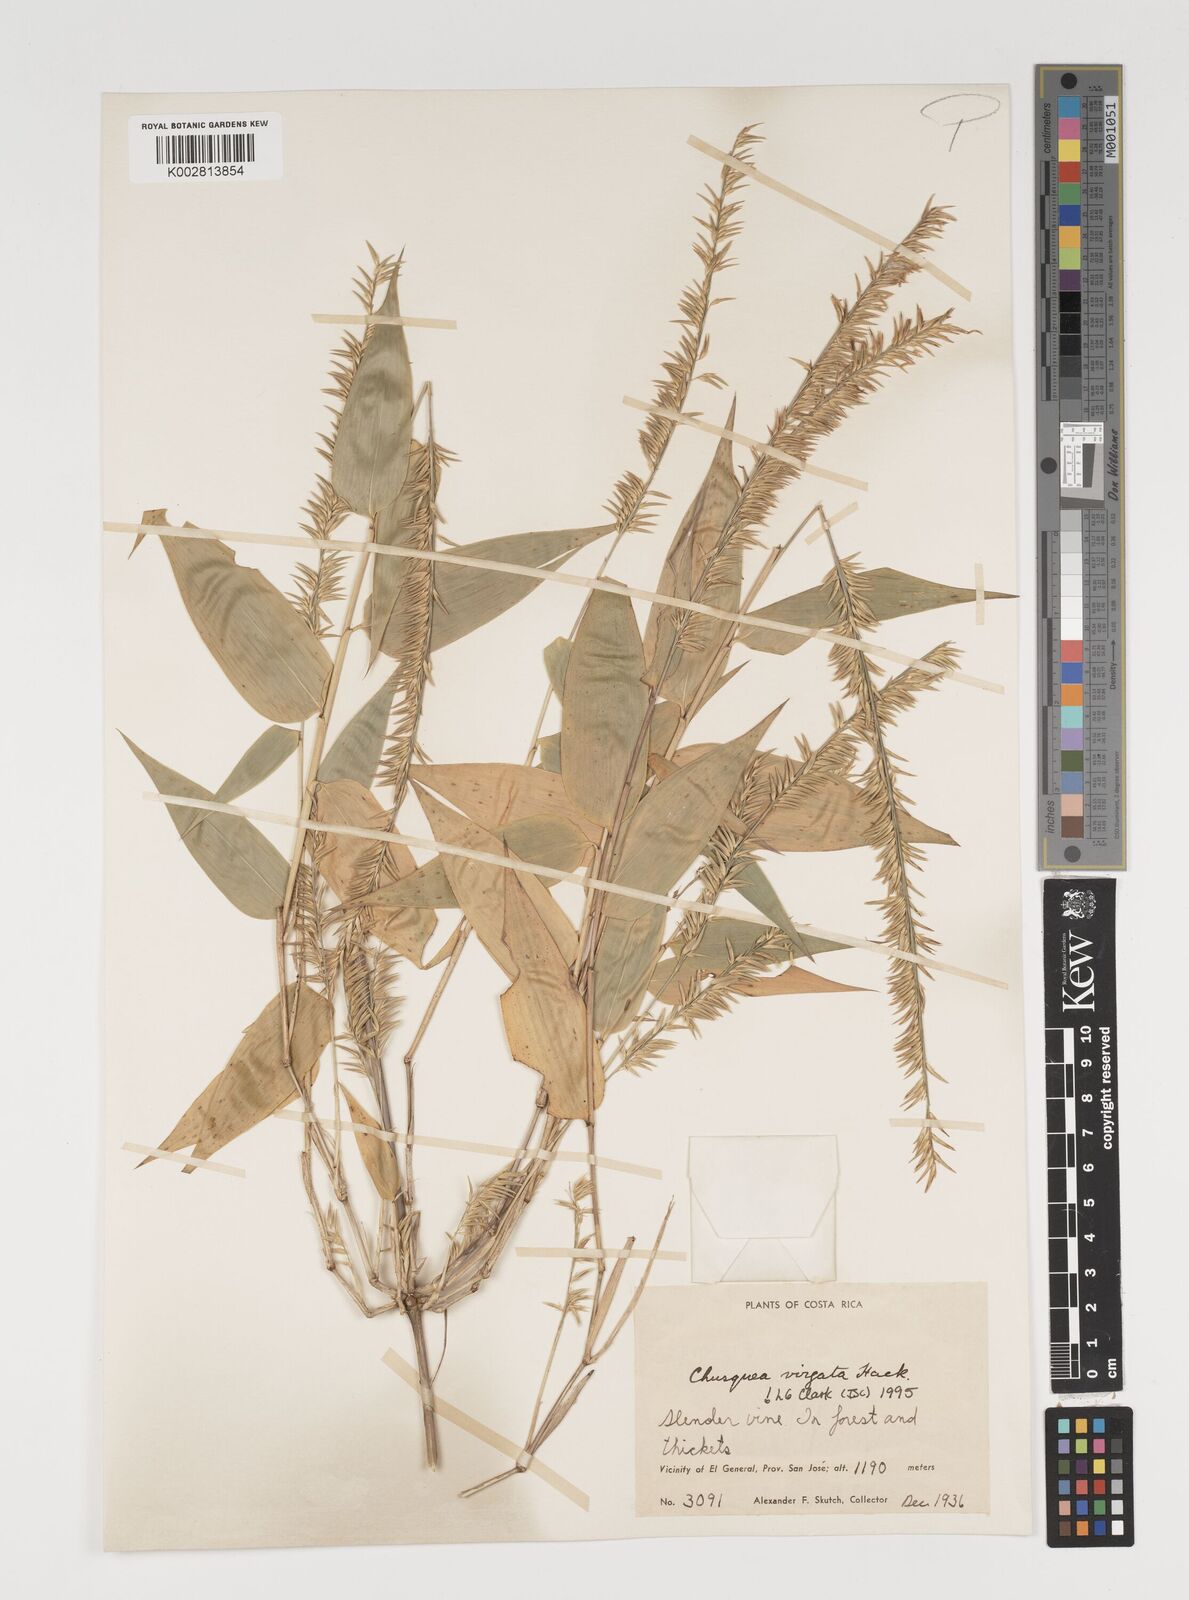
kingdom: Plantae
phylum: Tracheophyta
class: Liliopsida
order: Poales
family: Poaceae
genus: Chusquea
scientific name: Chusquea virgata
